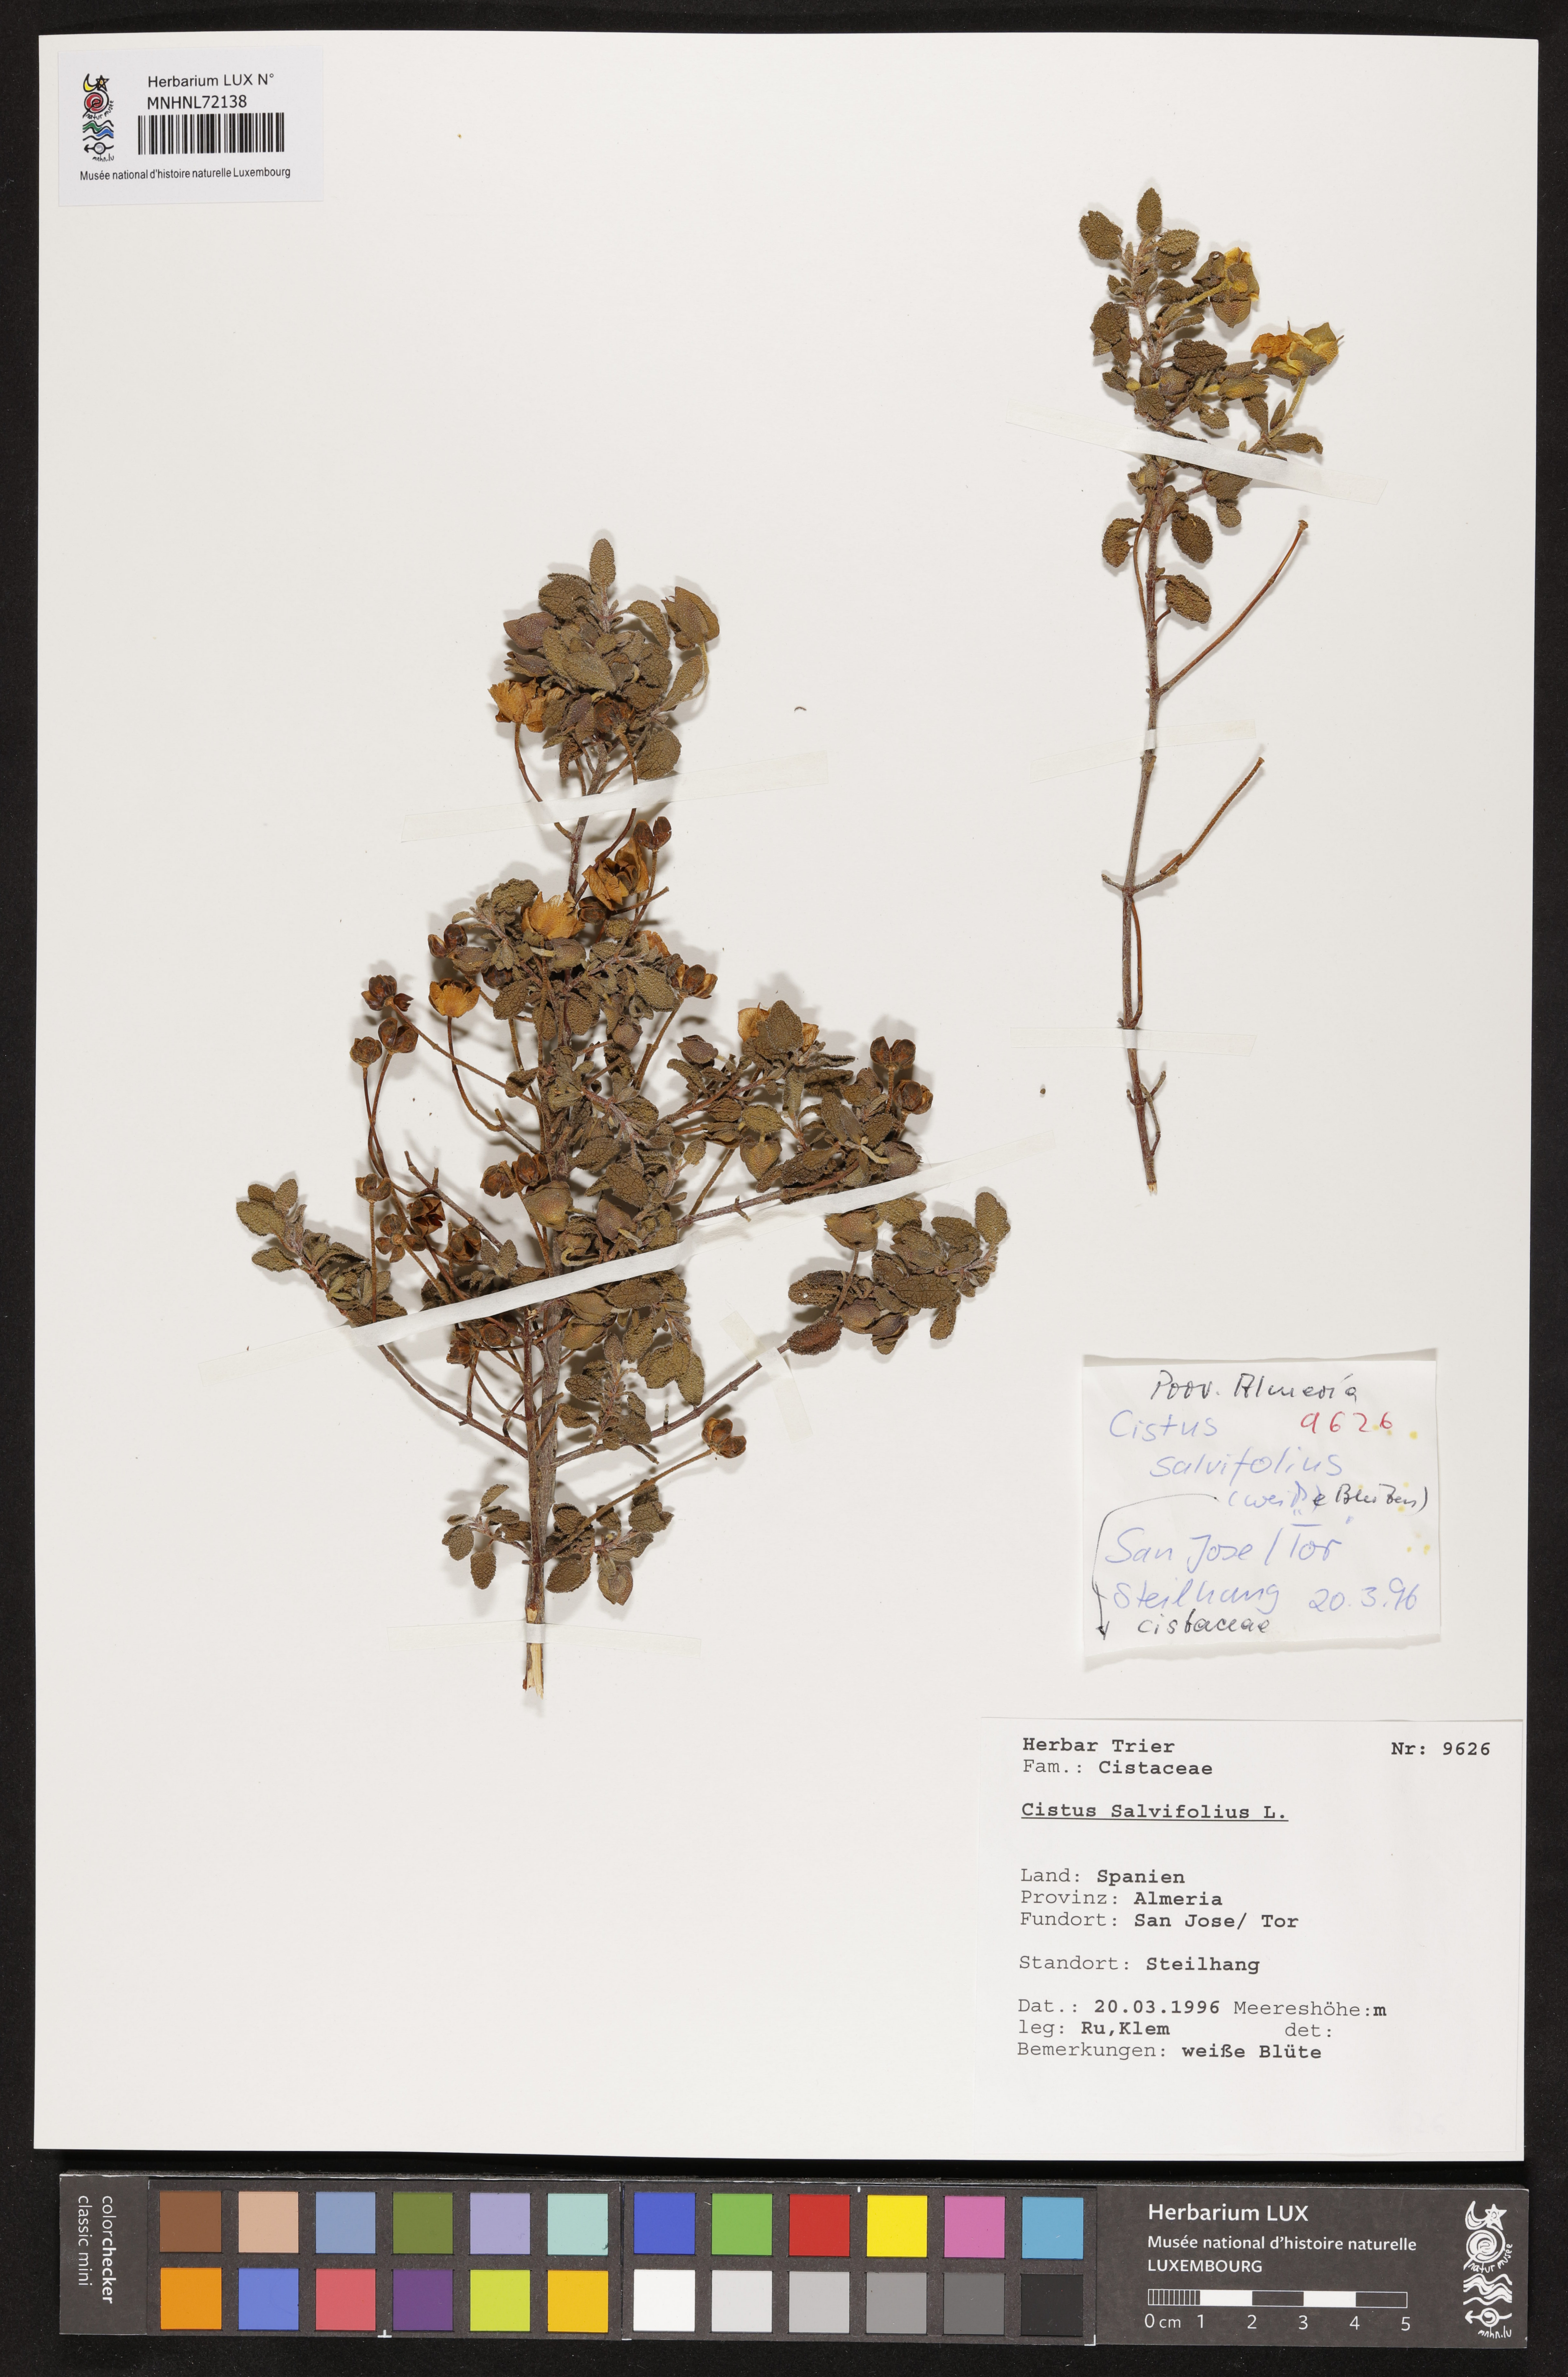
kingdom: Plantae
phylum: Tracheophyta
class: Magnoliopsida
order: Malvales
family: Cistaceae
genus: Cistus
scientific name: Cistus salviifolius
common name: Salvia cistus
